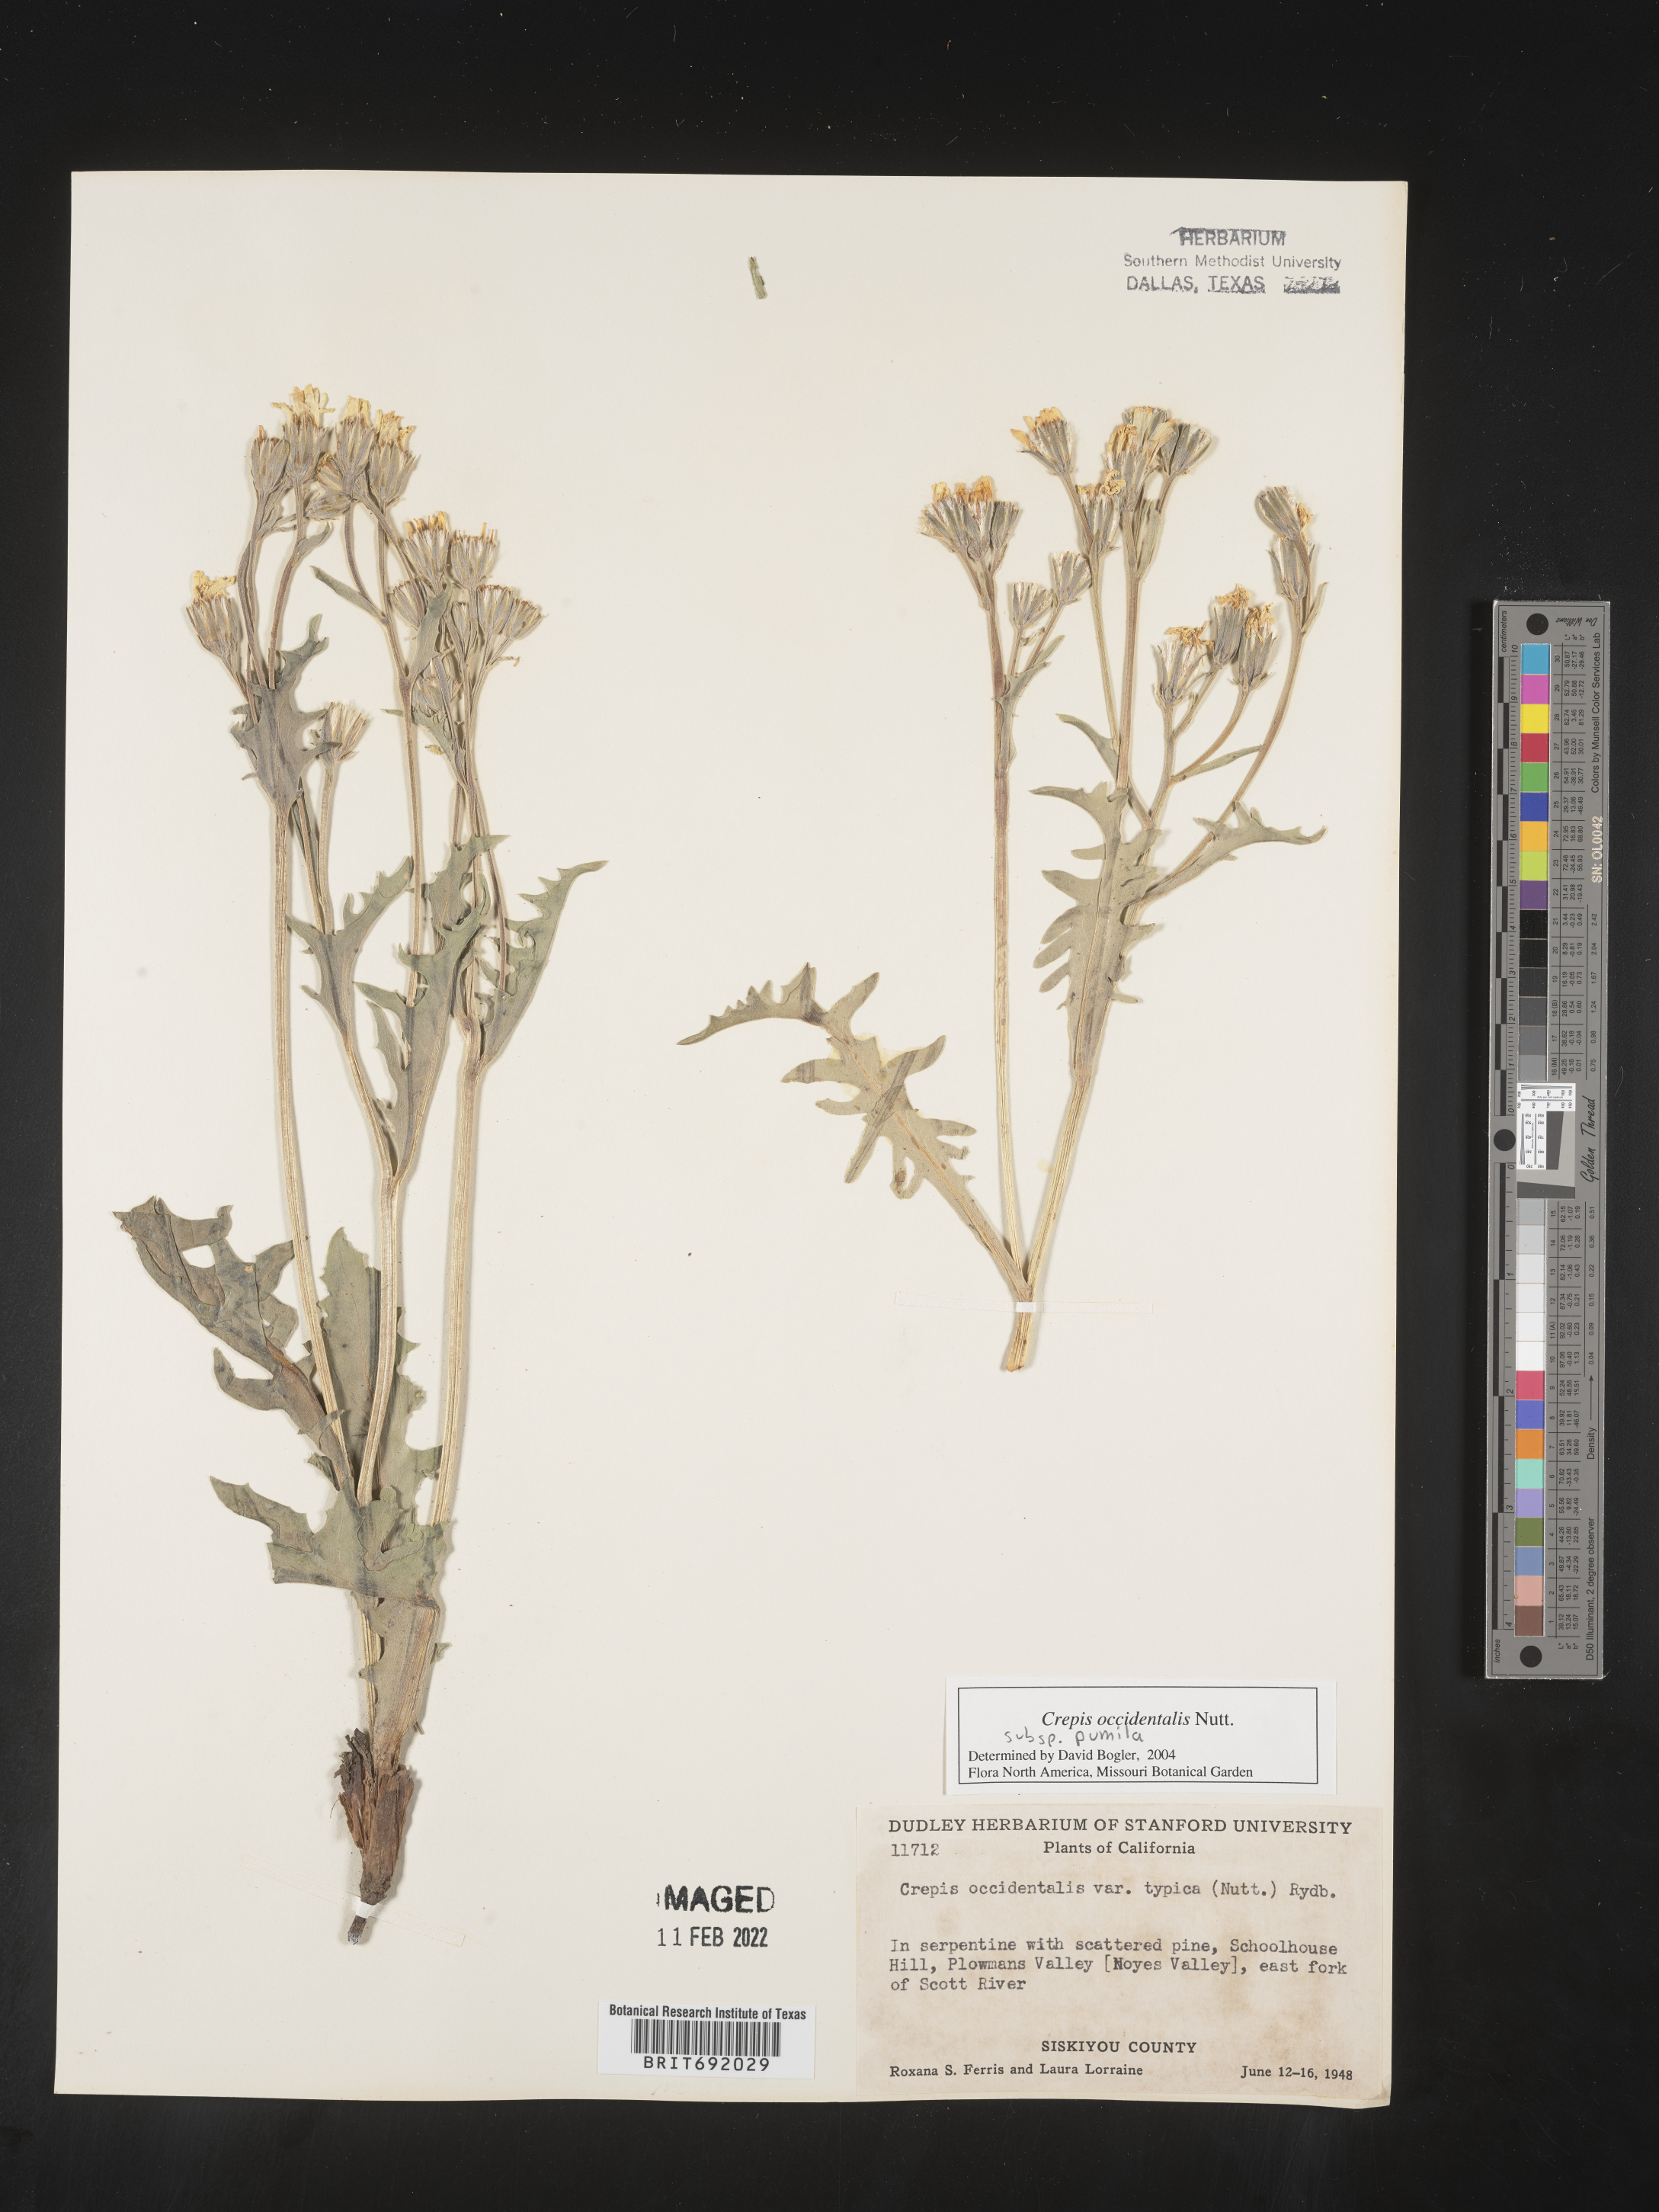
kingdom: Plantae
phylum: Tracheophyta
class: Magnoliopsida
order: Asterales
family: Asteraceae
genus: Crepis
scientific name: Crepis occidentalis
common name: Gray hawk's-beard
